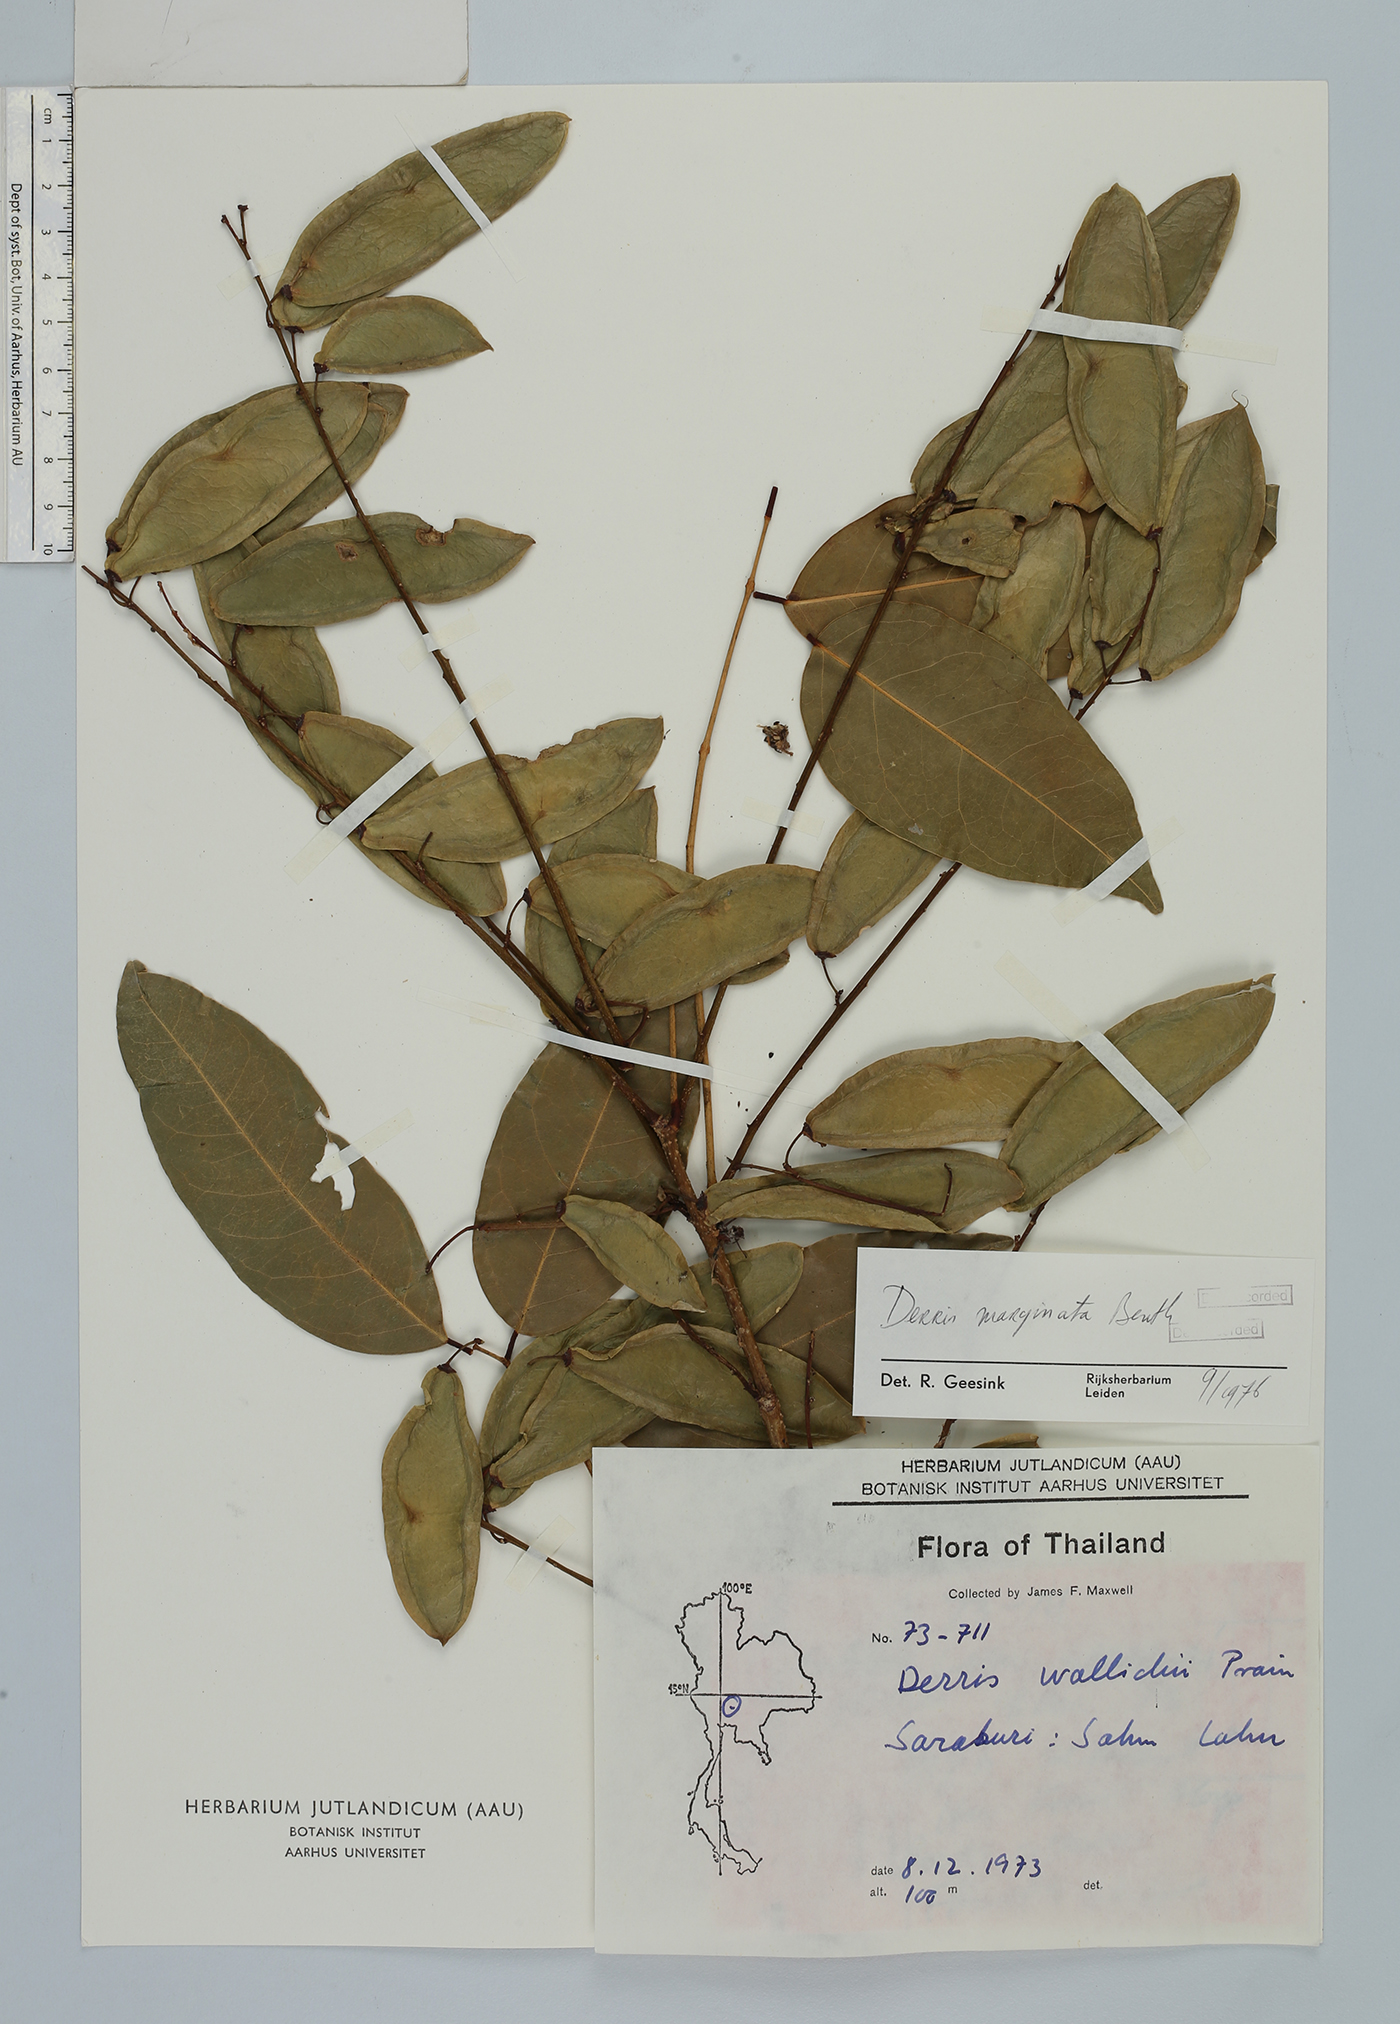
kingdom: Plantae
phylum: Tracheophyta
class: Magnoliopsida
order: Fabales
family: Fabaceae
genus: Derris
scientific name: Derris marginata
